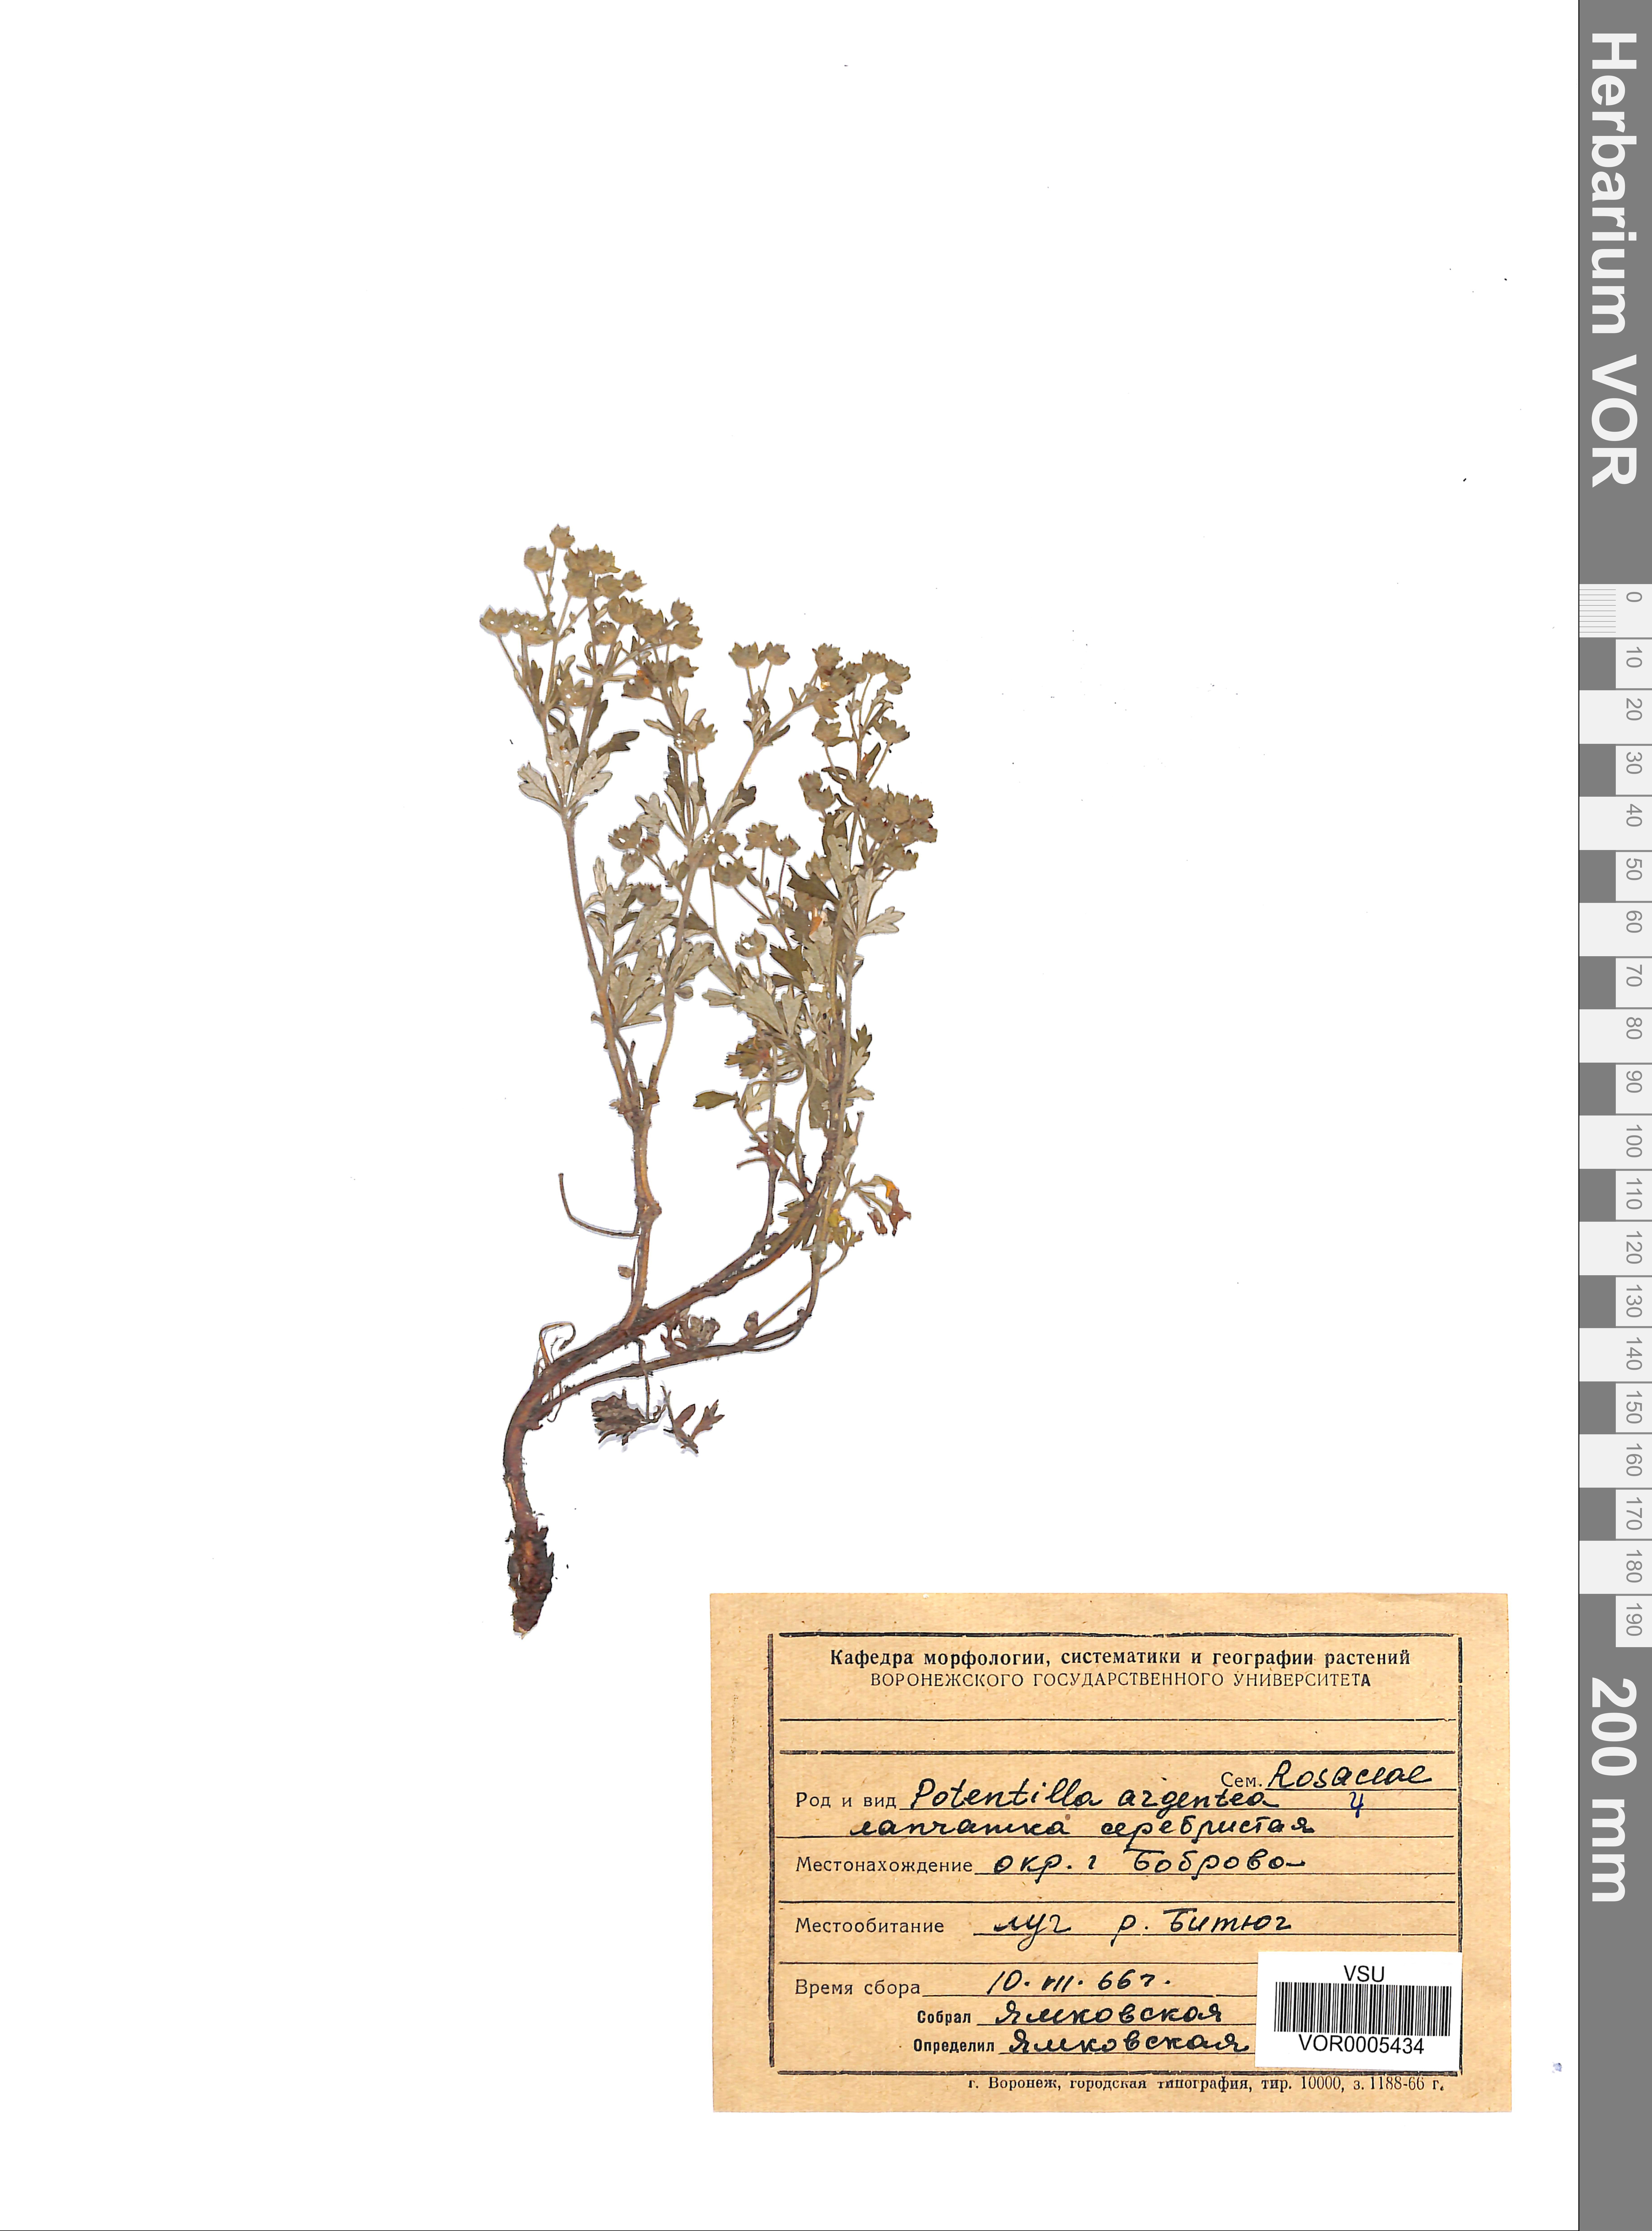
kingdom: Plantae
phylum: Tracheophyta
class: Magnoliopsida
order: Rosales
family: Rosaceae
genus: Potentilla
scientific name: Potentilla argentea
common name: Hoary cinquefoil
